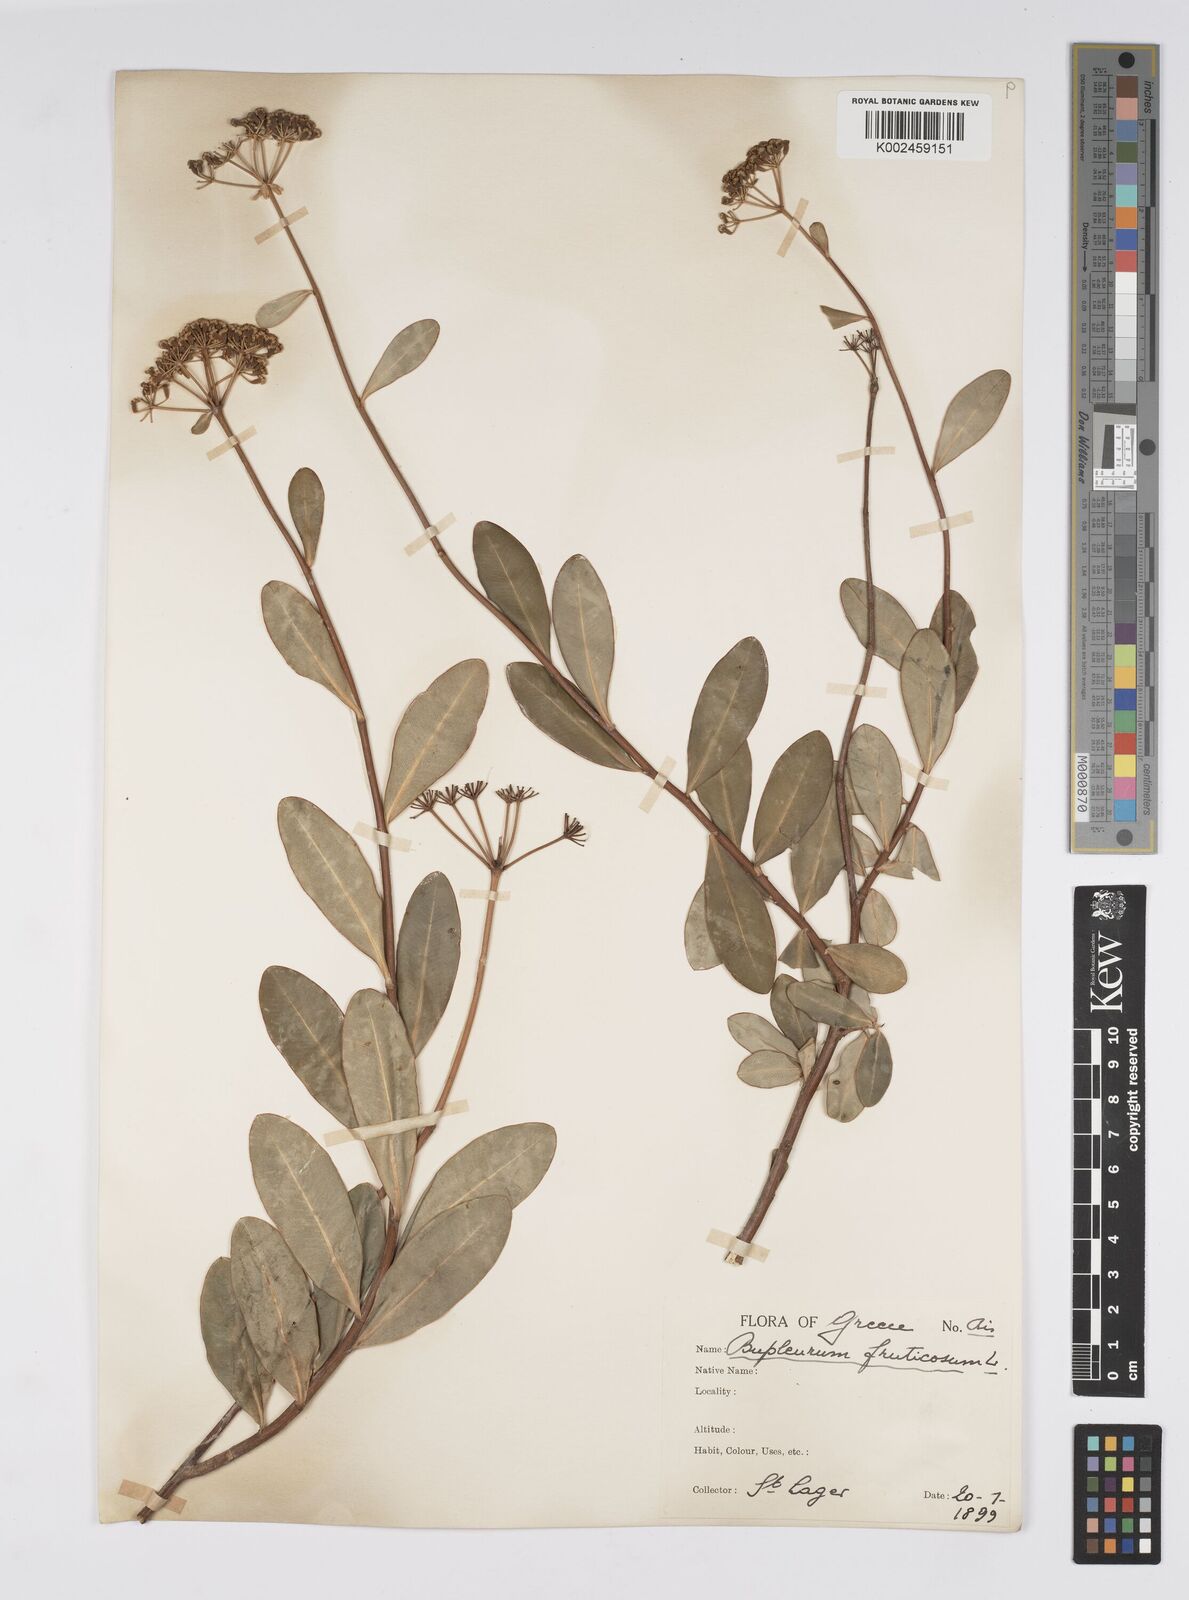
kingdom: Plantae
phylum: Tracheophyta
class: Magnoliopsida
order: Apiales
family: Apiaceae
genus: Bupleurum
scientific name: Bupleurum fruticosum
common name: Shrubby hare's-ear
